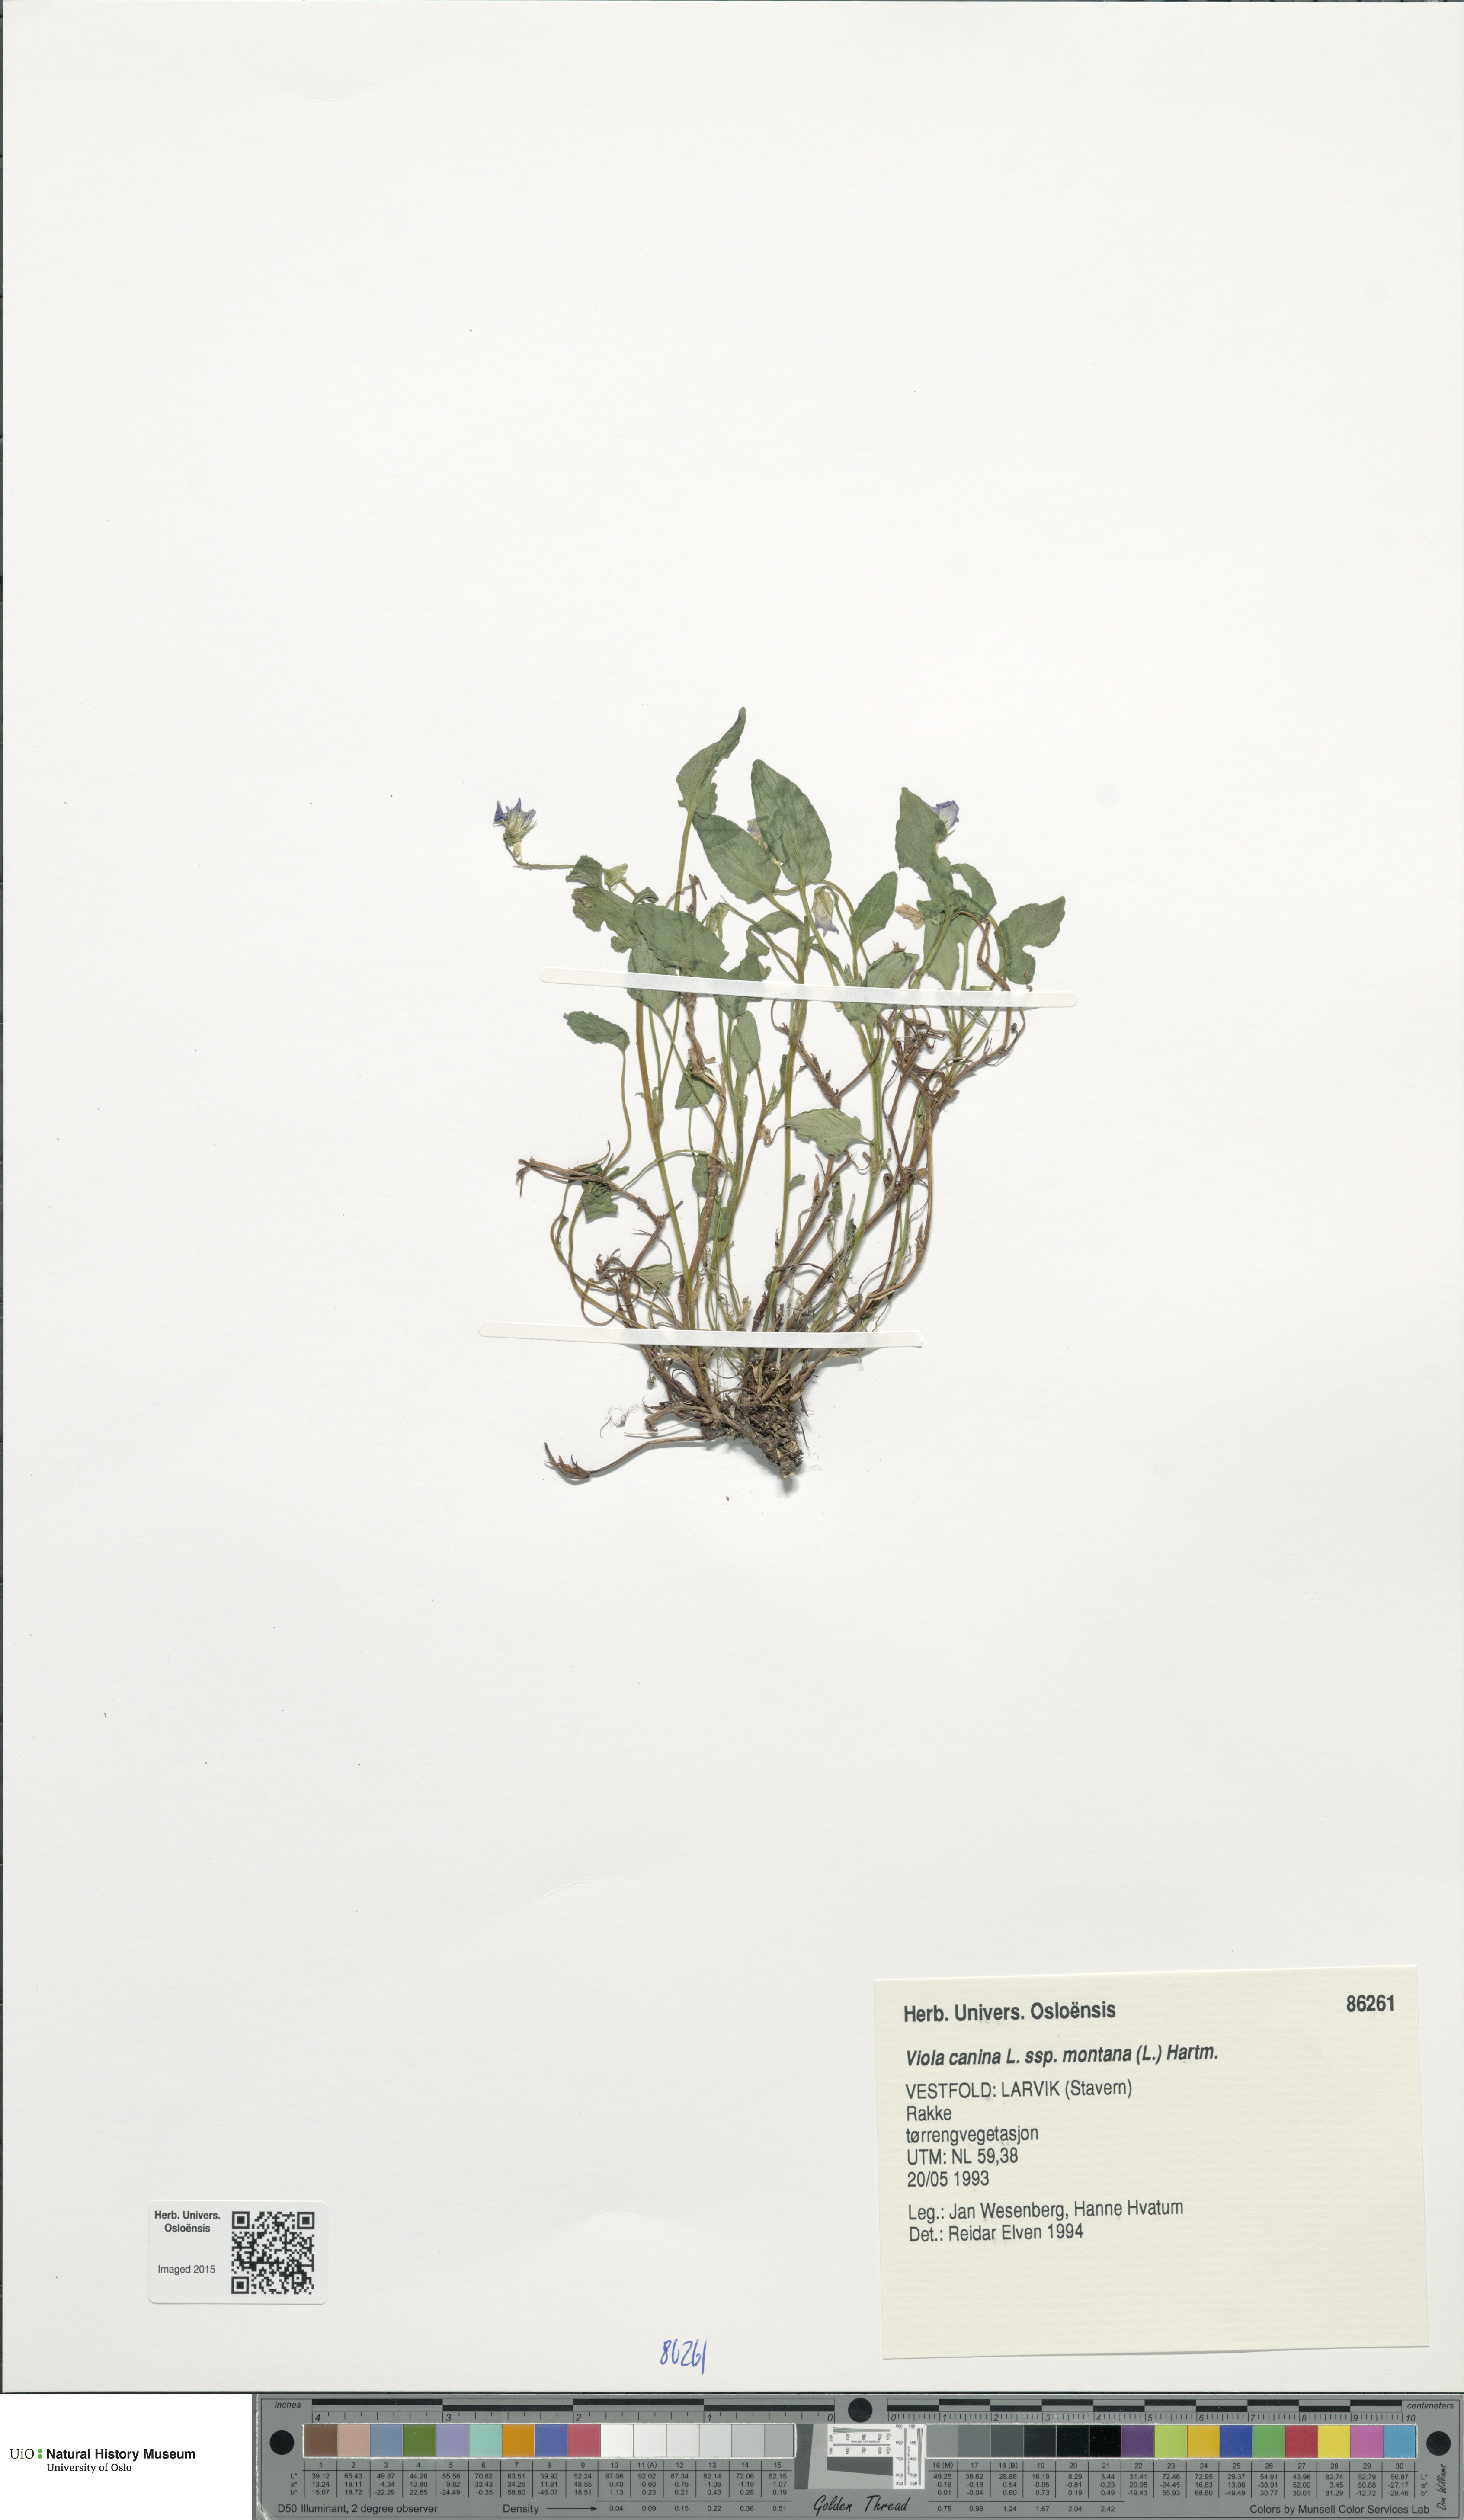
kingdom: Plantae
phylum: Tracheophyta
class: Magnoliopsida
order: Malpighiales
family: Violaceae
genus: Viola
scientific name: Viola ruppii
